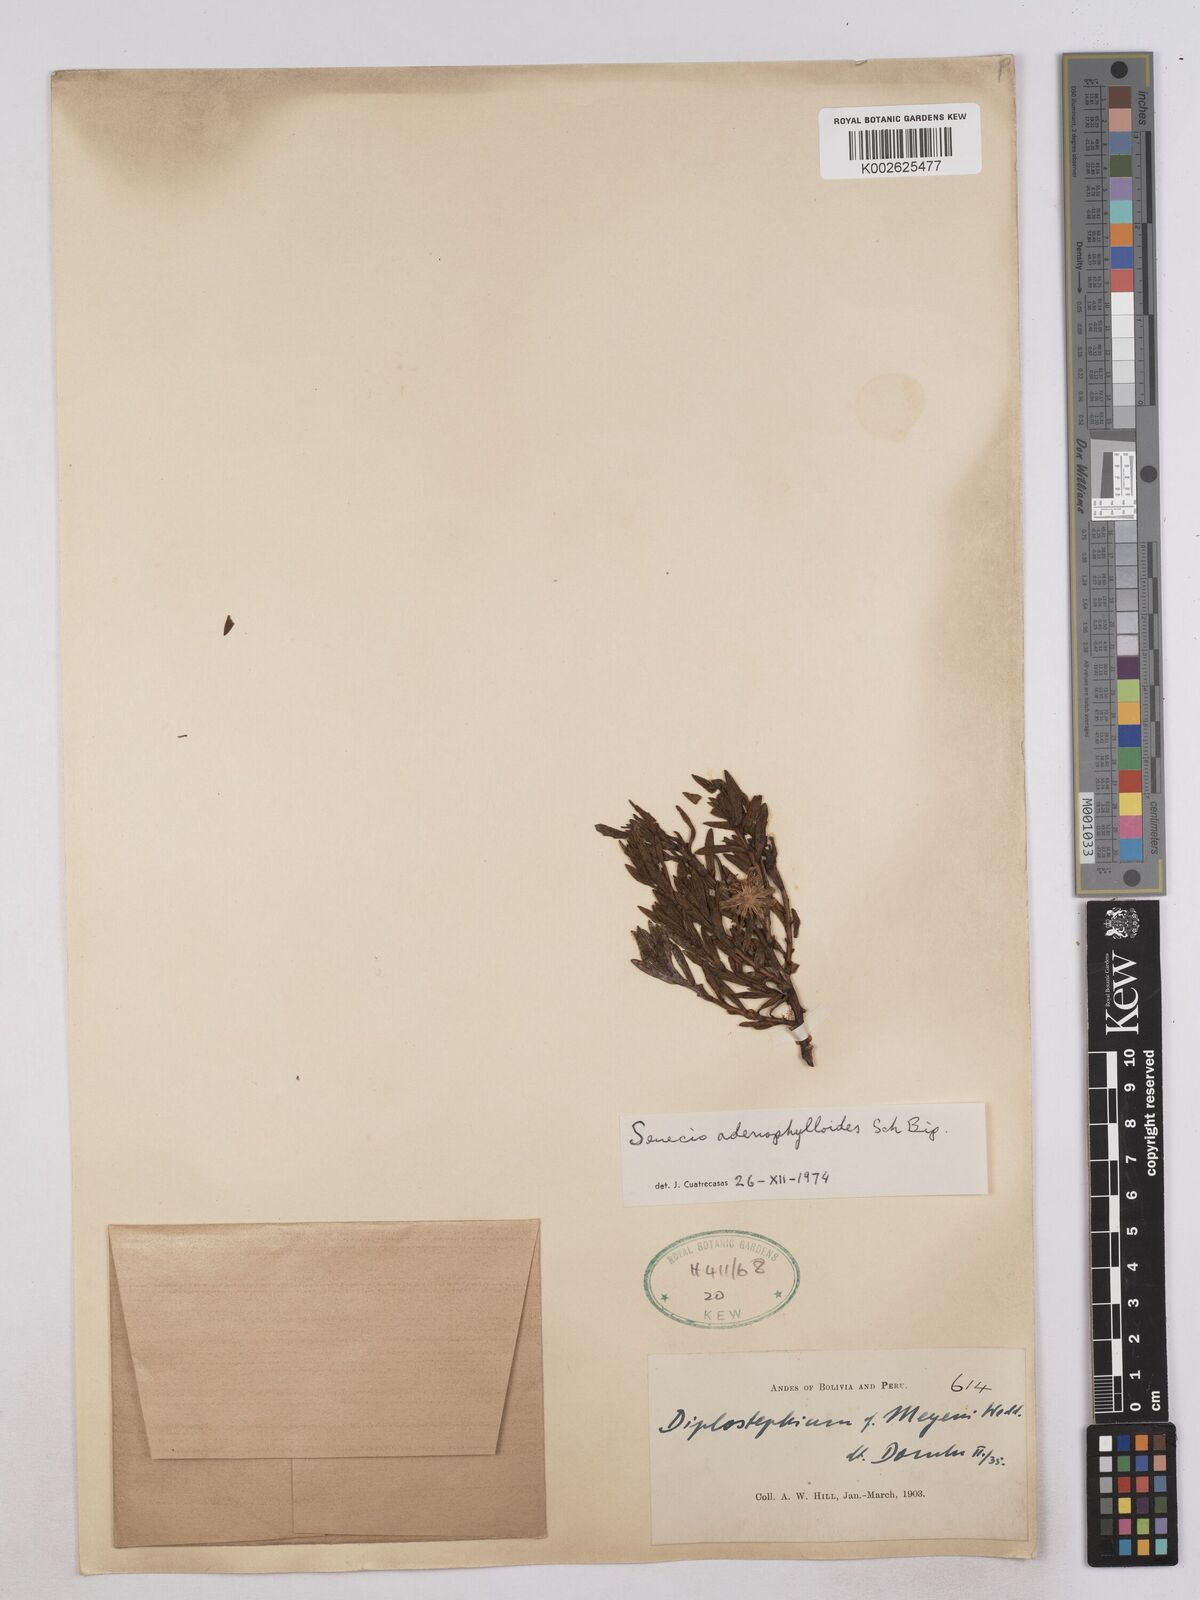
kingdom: Plantae
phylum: Tracheophyta
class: Magnoliopsida
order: Asterales
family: Asteraceae
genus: Senecio
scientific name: Senecio
